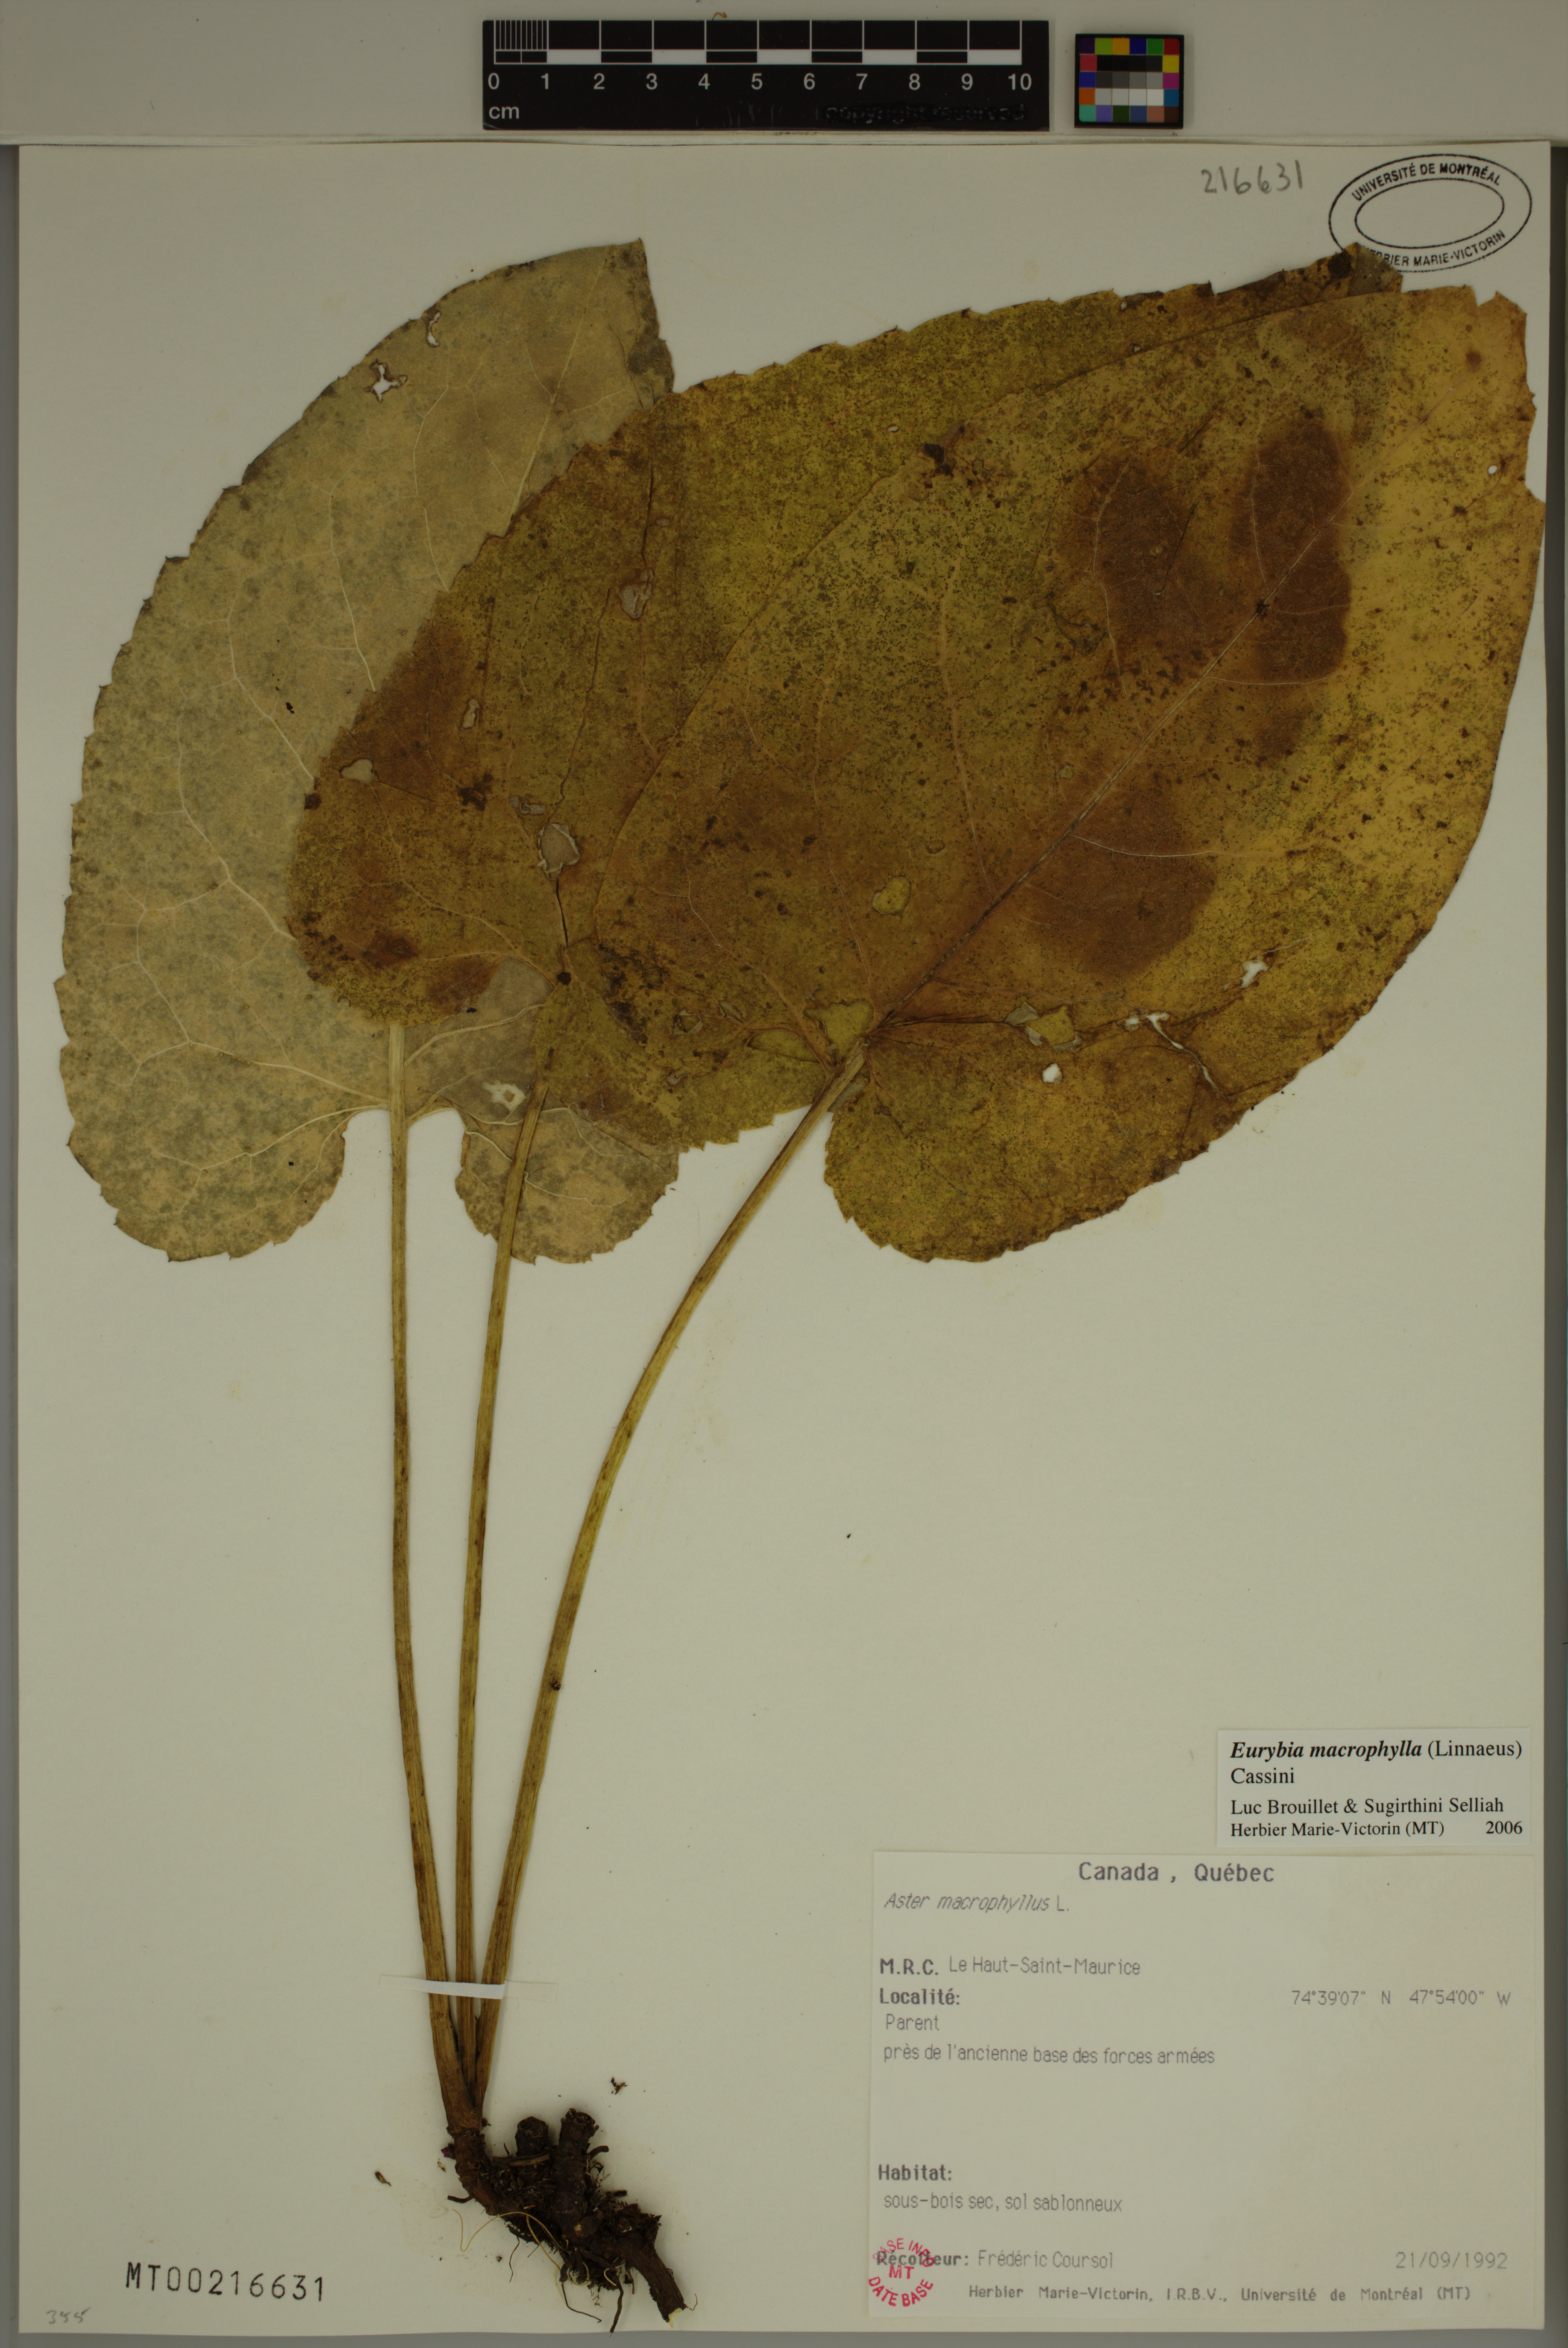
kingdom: Plantae
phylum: Tracheophyta
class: Magnoliopsida
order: Asterales
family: Asteraceae
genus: Eurybia
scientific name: Eurybia macrophylla
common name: Big-leaved aster
